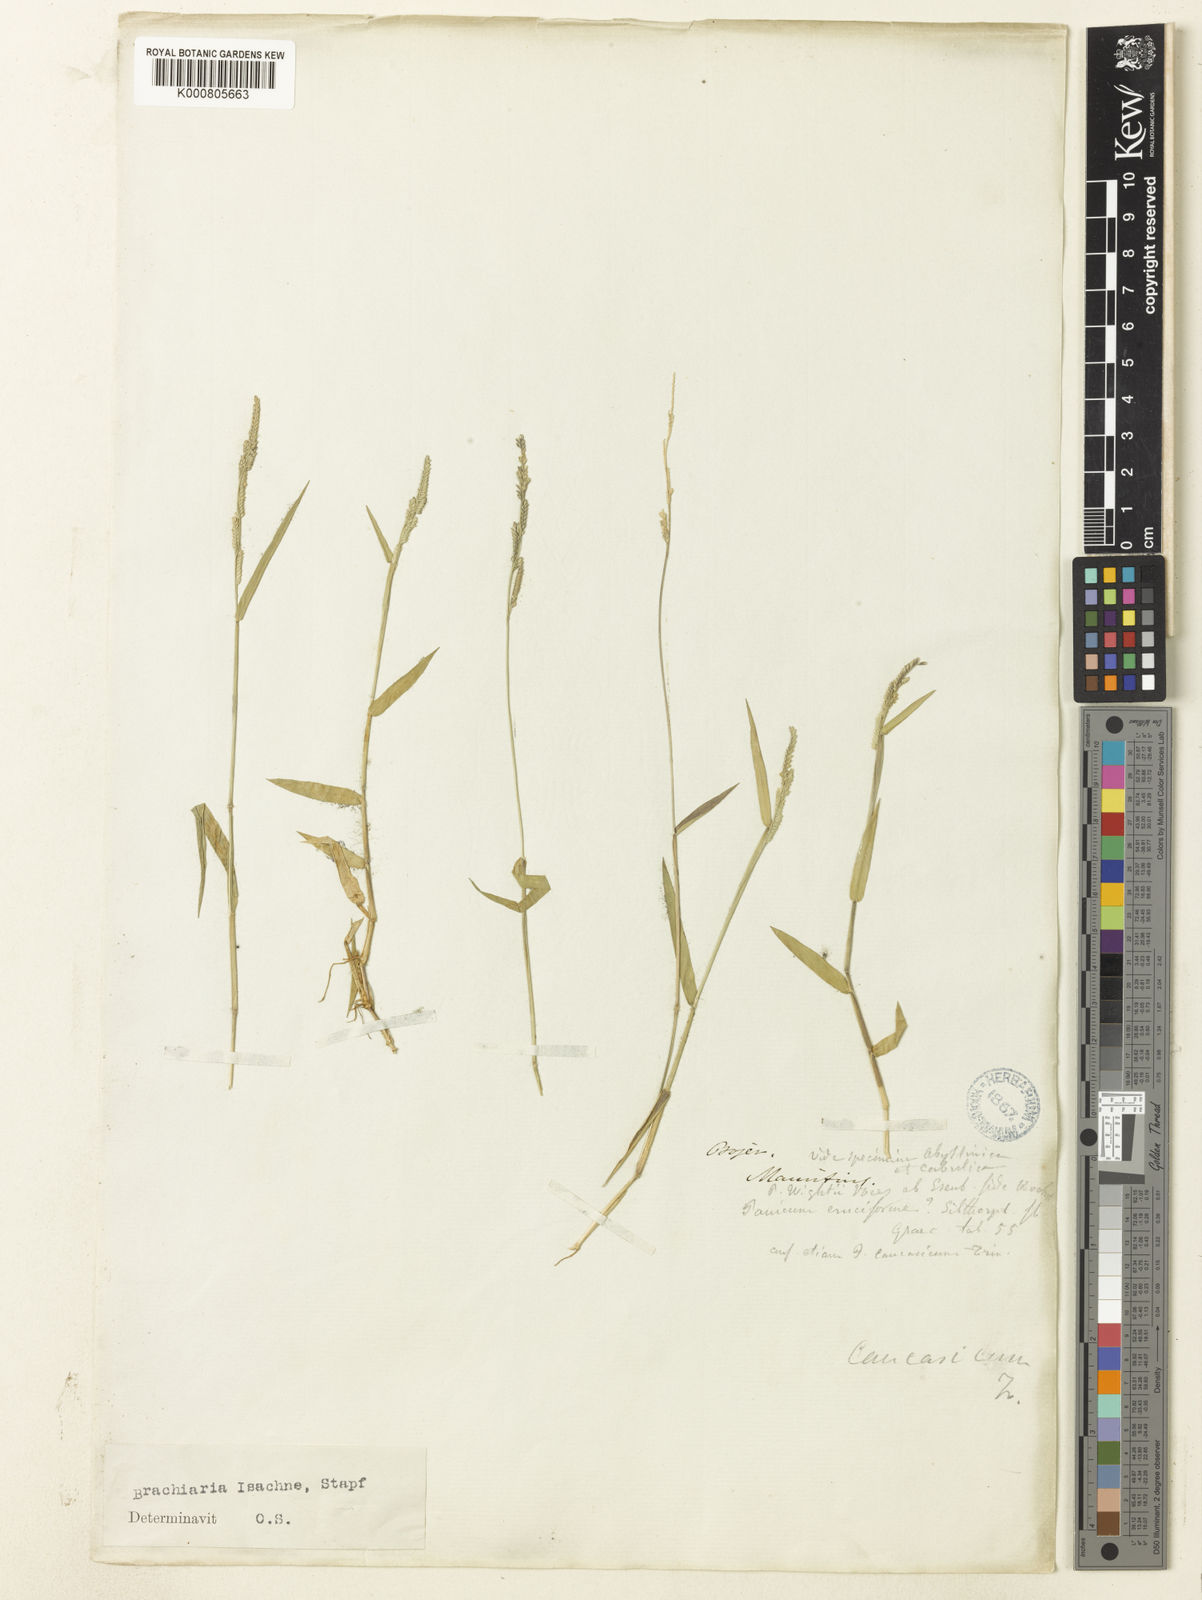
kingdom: Plantae
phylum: Tracheophyta
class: Liliopsida
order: Poales
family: Poaceae
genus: Moorochloa
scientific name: Moorochloa eruciformis
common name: Sweet signalgrass
